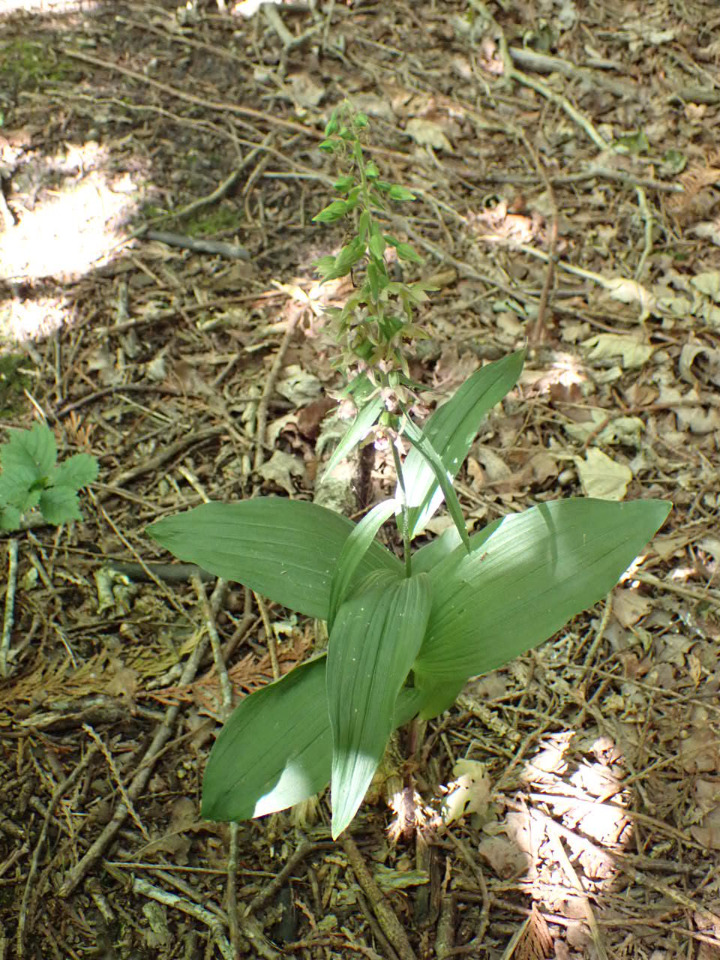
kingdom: Plantae
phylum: Tracheophyta
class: Liliopsida
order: Asparagales
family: Orchidaceae
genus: Epipactis
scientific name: Epipactis helleborine
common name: Skov-hullæbe
